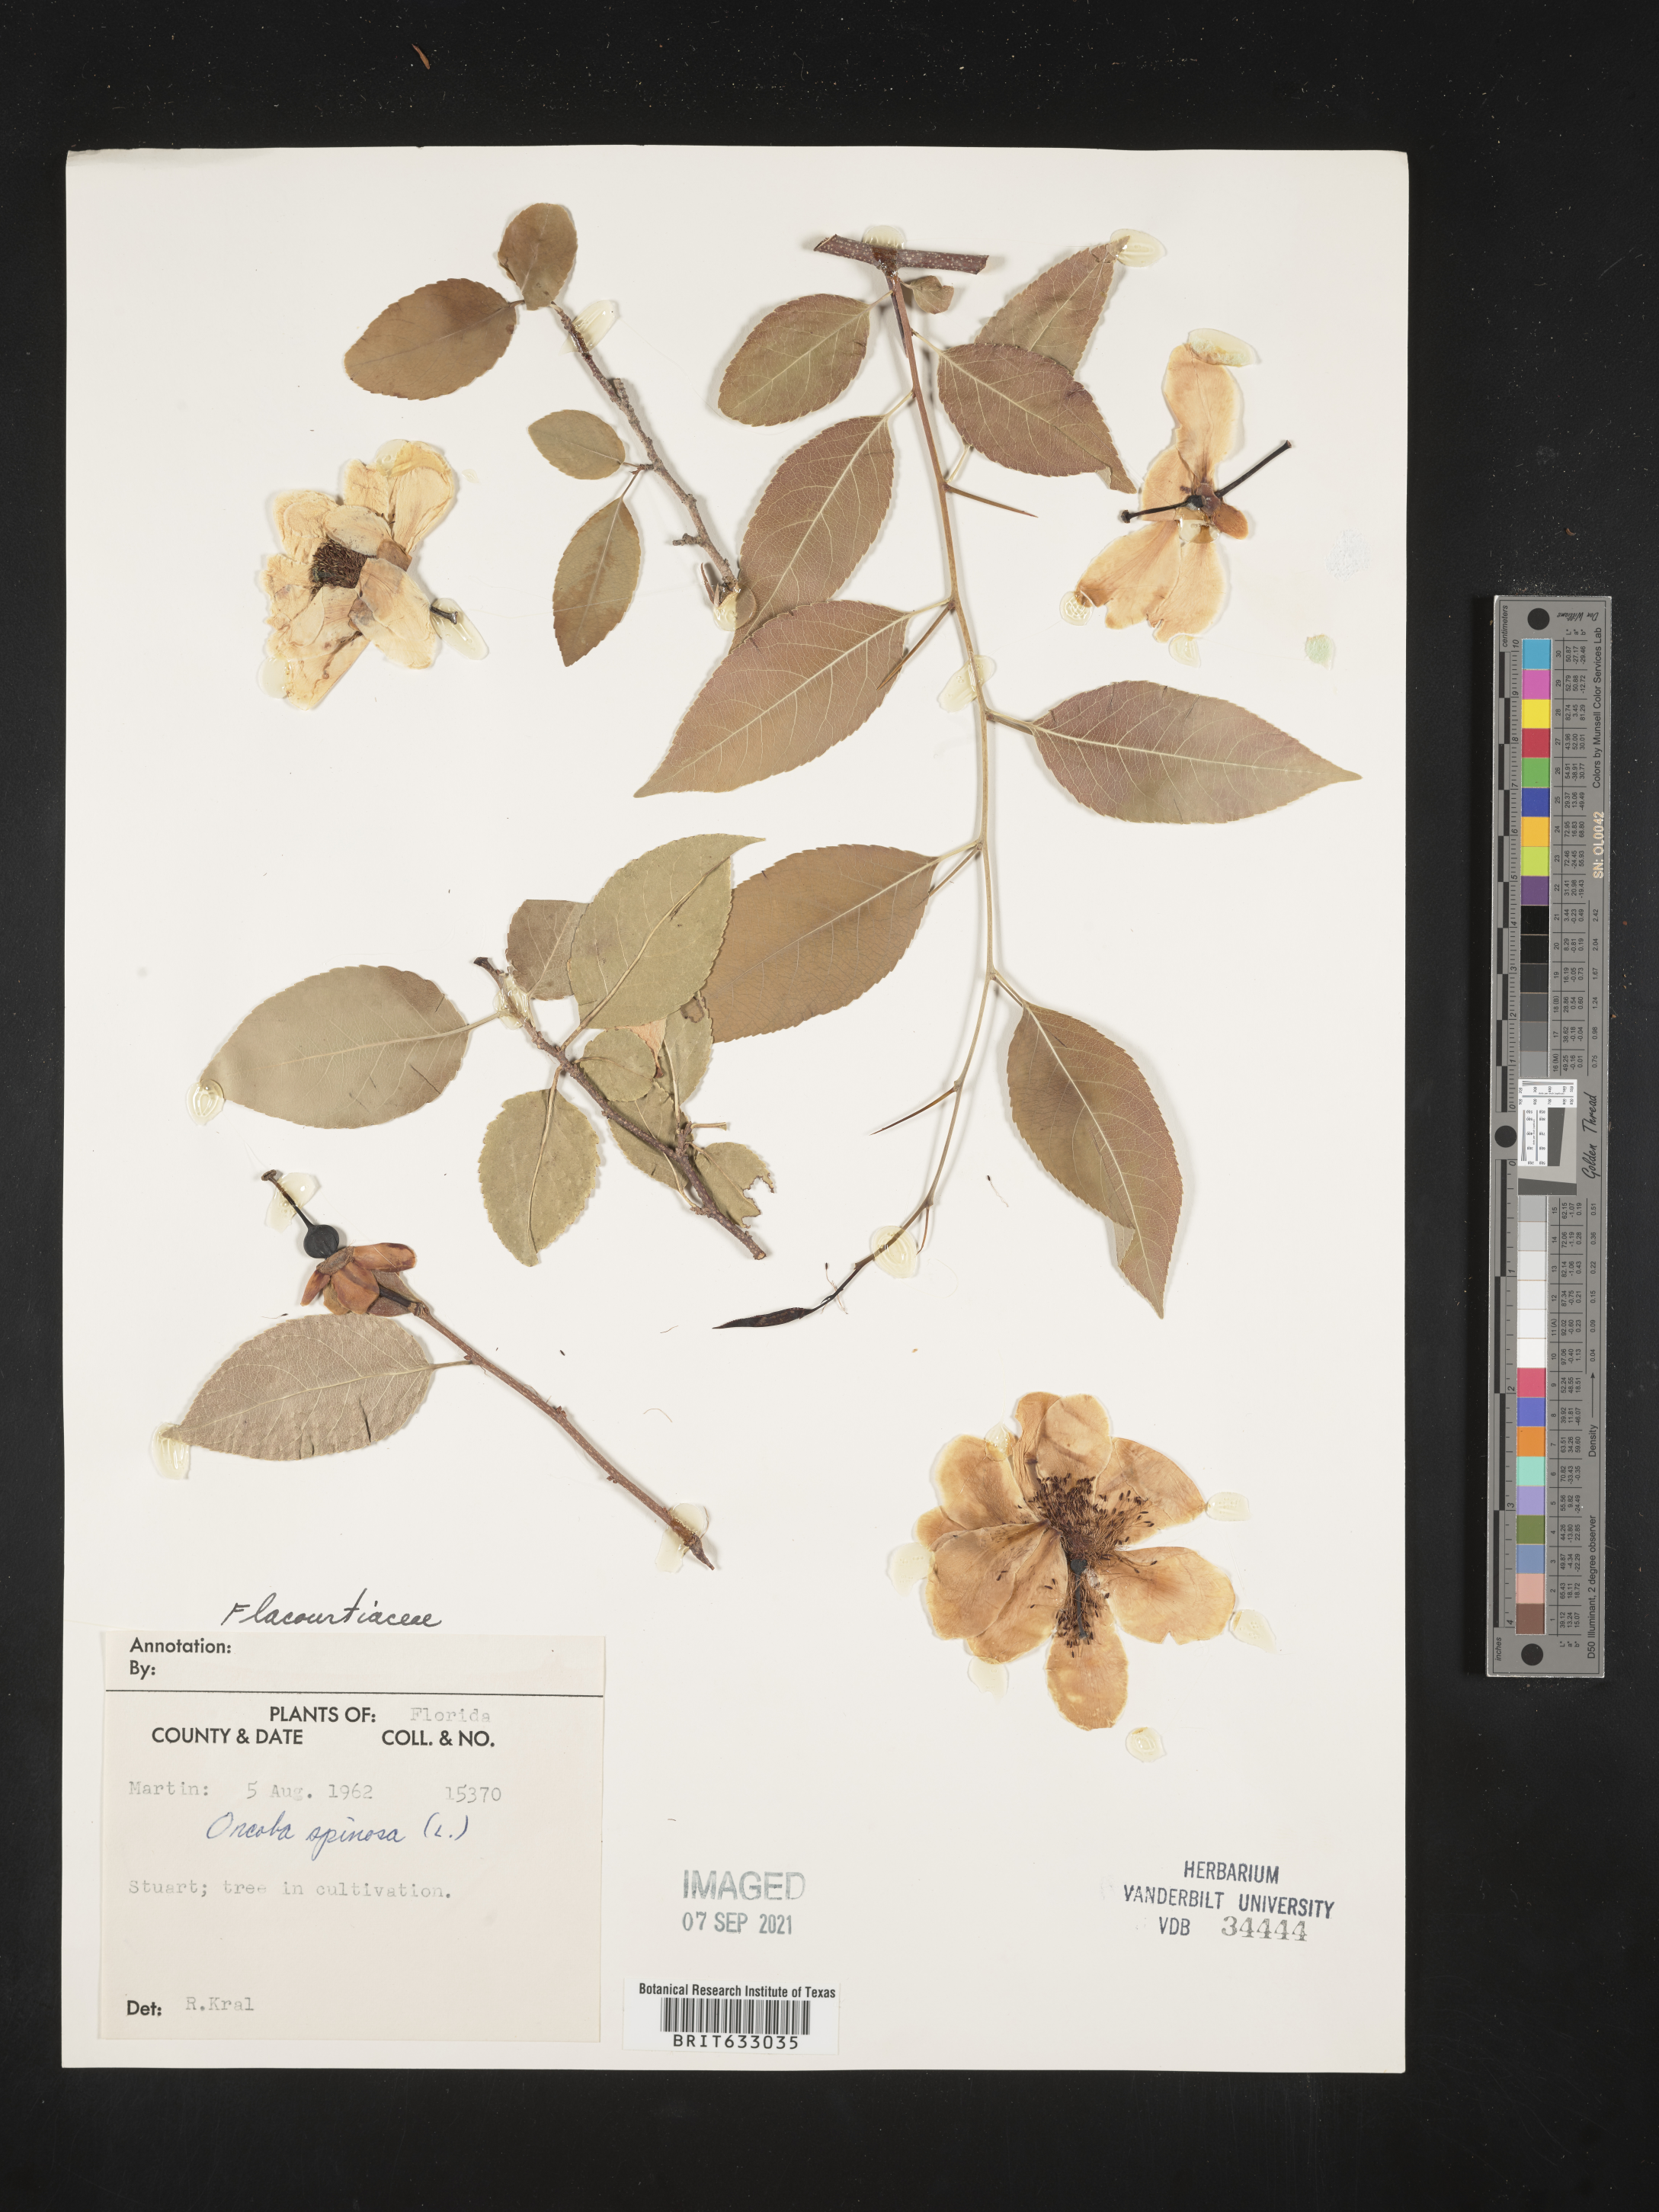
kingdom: Plantae
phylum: Tracheophyta
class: Magnoliopsida
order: Malpighiales
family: Salicaceae
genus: Oncoba
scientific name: Oncoba
